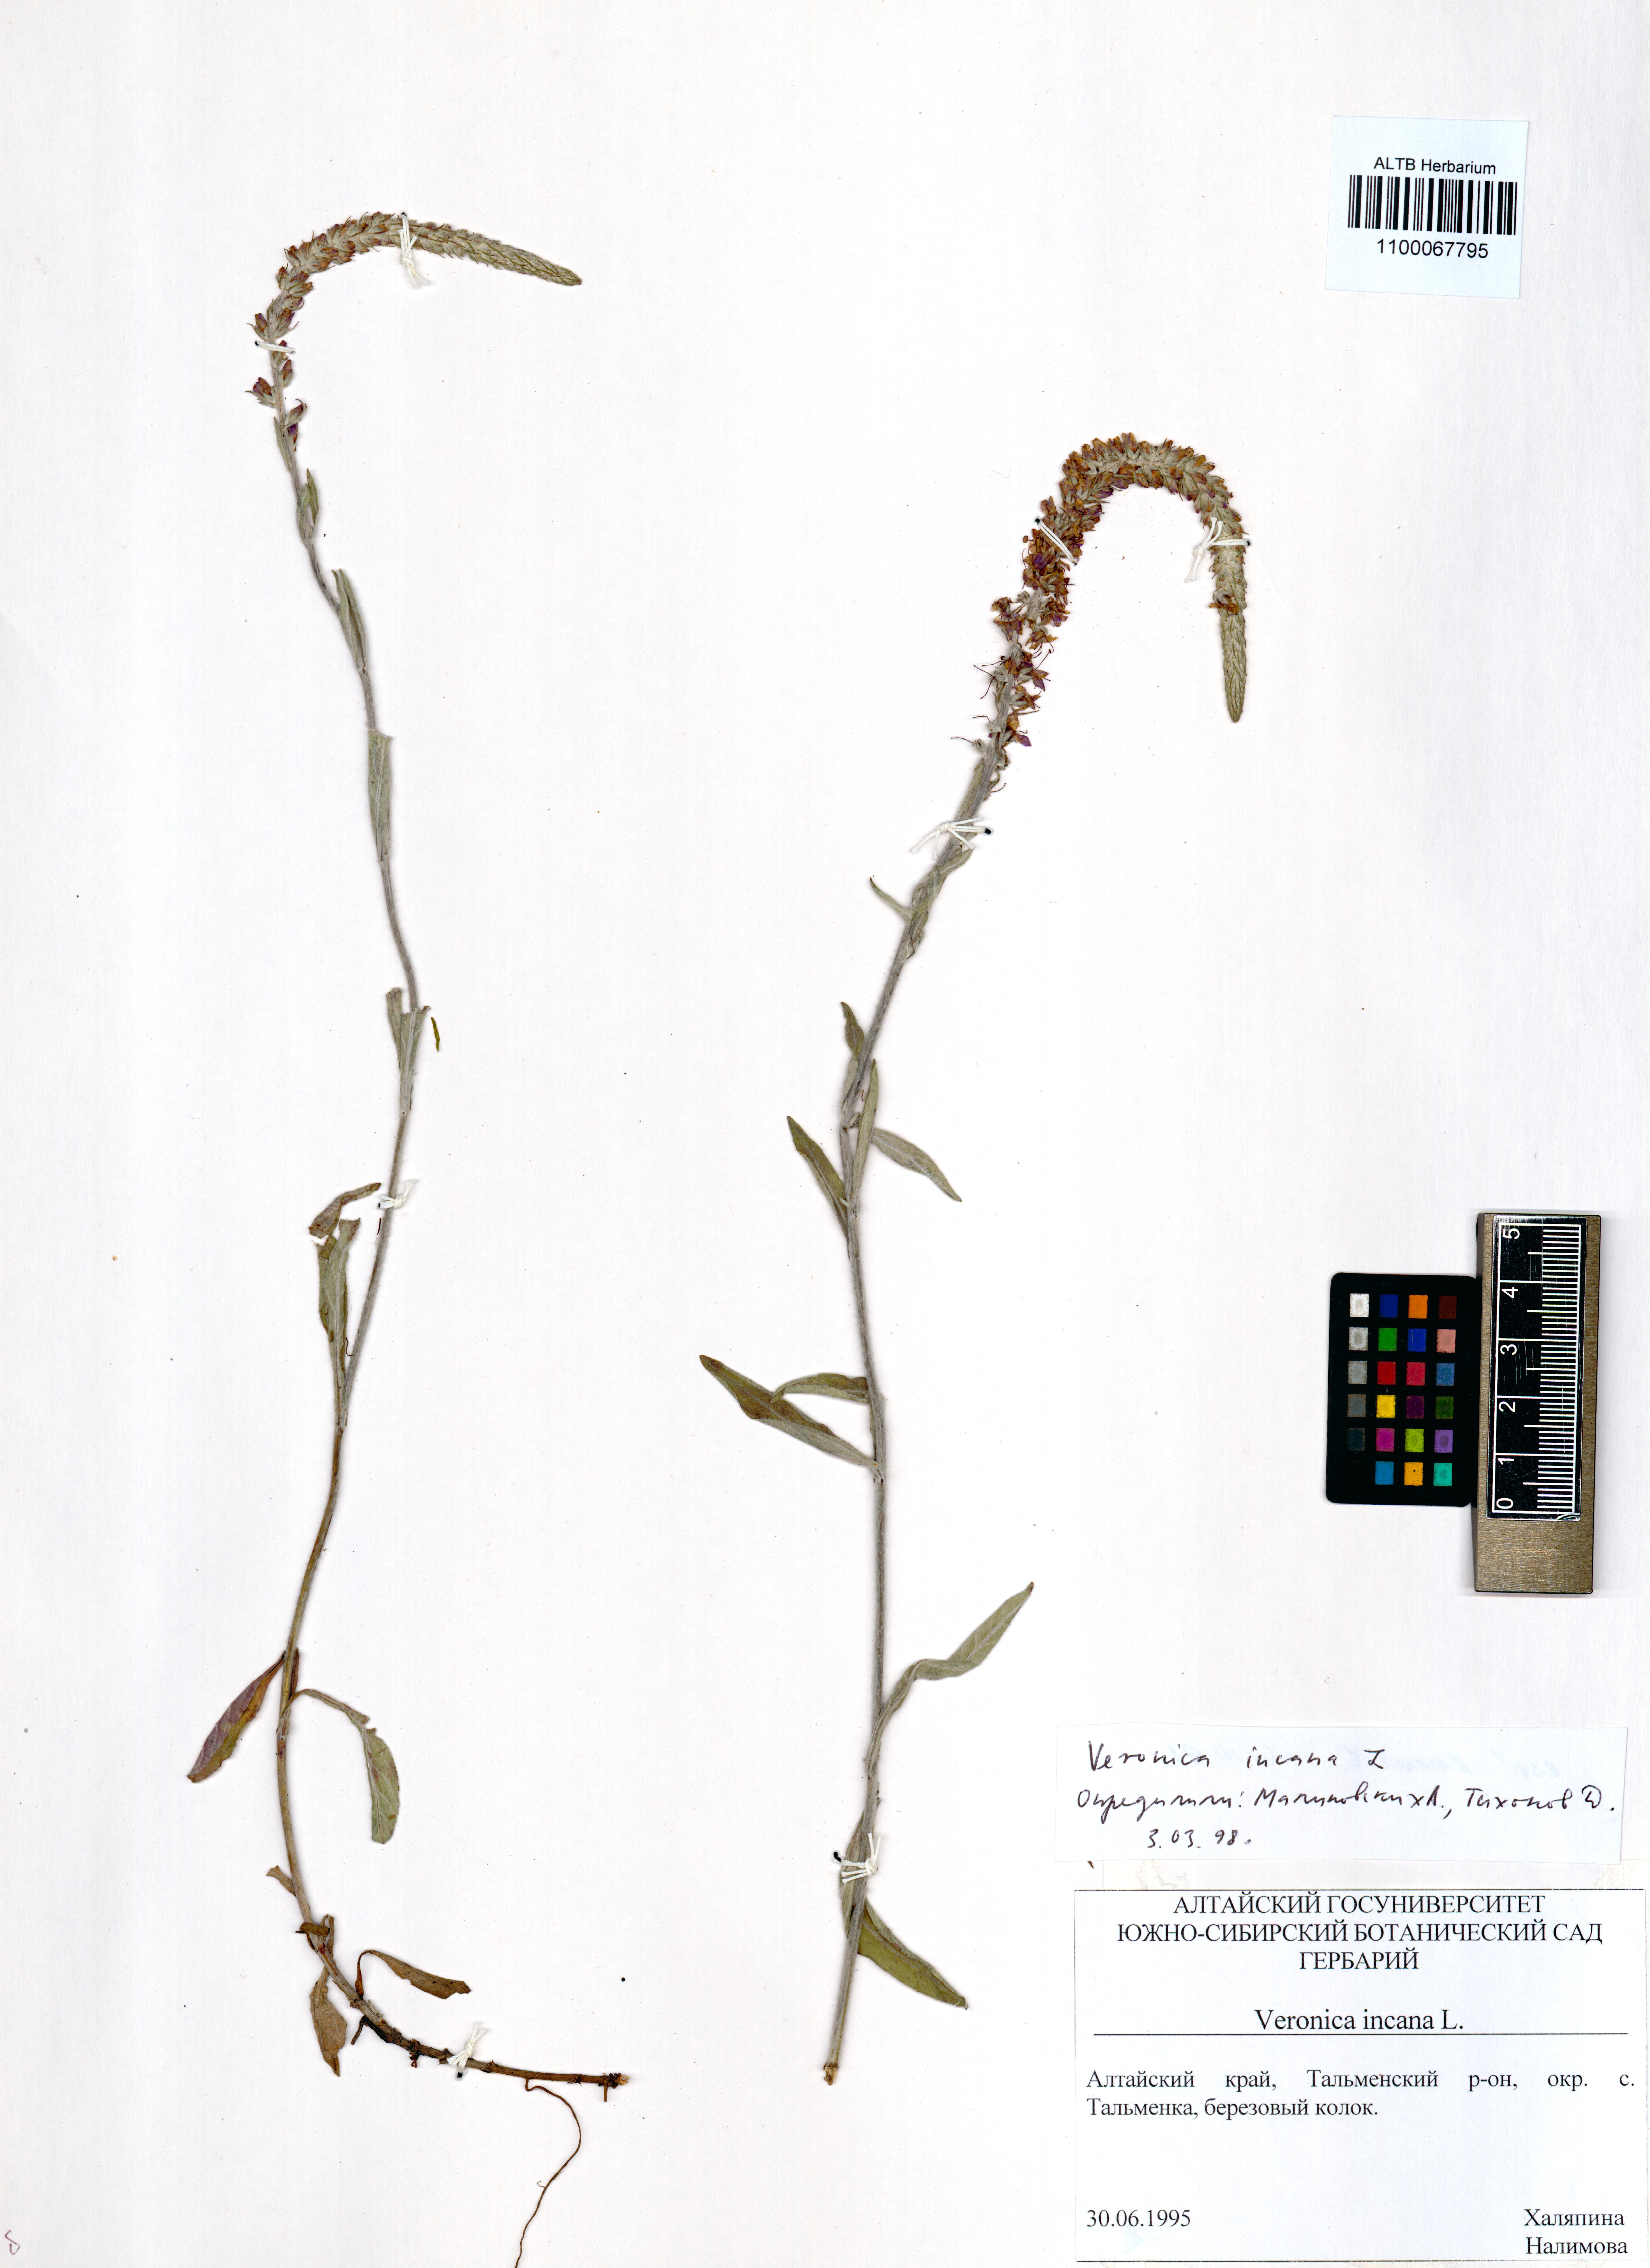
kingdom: Plantae
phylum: Tracheophyta
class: Magnoliopsida
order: Lamiales
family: Plantaginaceae
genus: Veronica
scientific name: Veronica incana
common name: Silver speedwell
